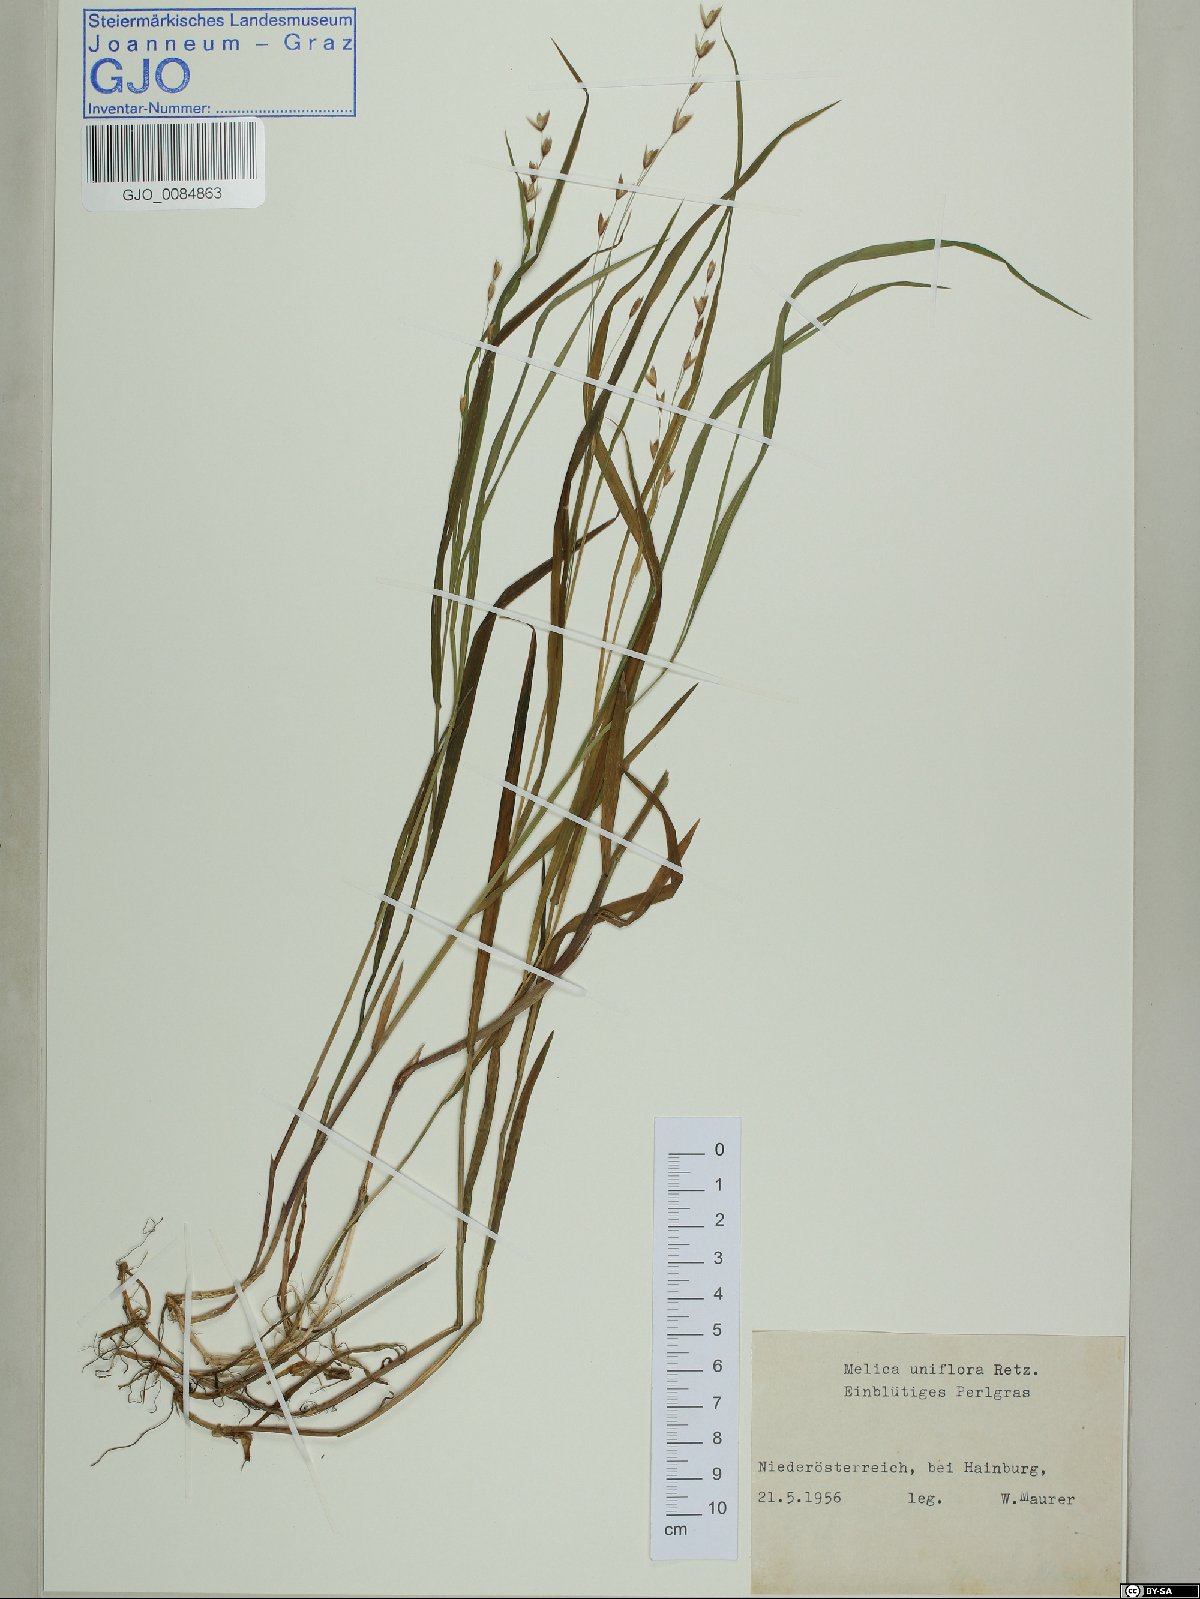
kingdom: Plantae
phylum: Tracheophyta
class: Liliopsida
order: Poales
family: Poaceae
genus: Melica
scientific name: Melica uniflora
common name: Wood melick
